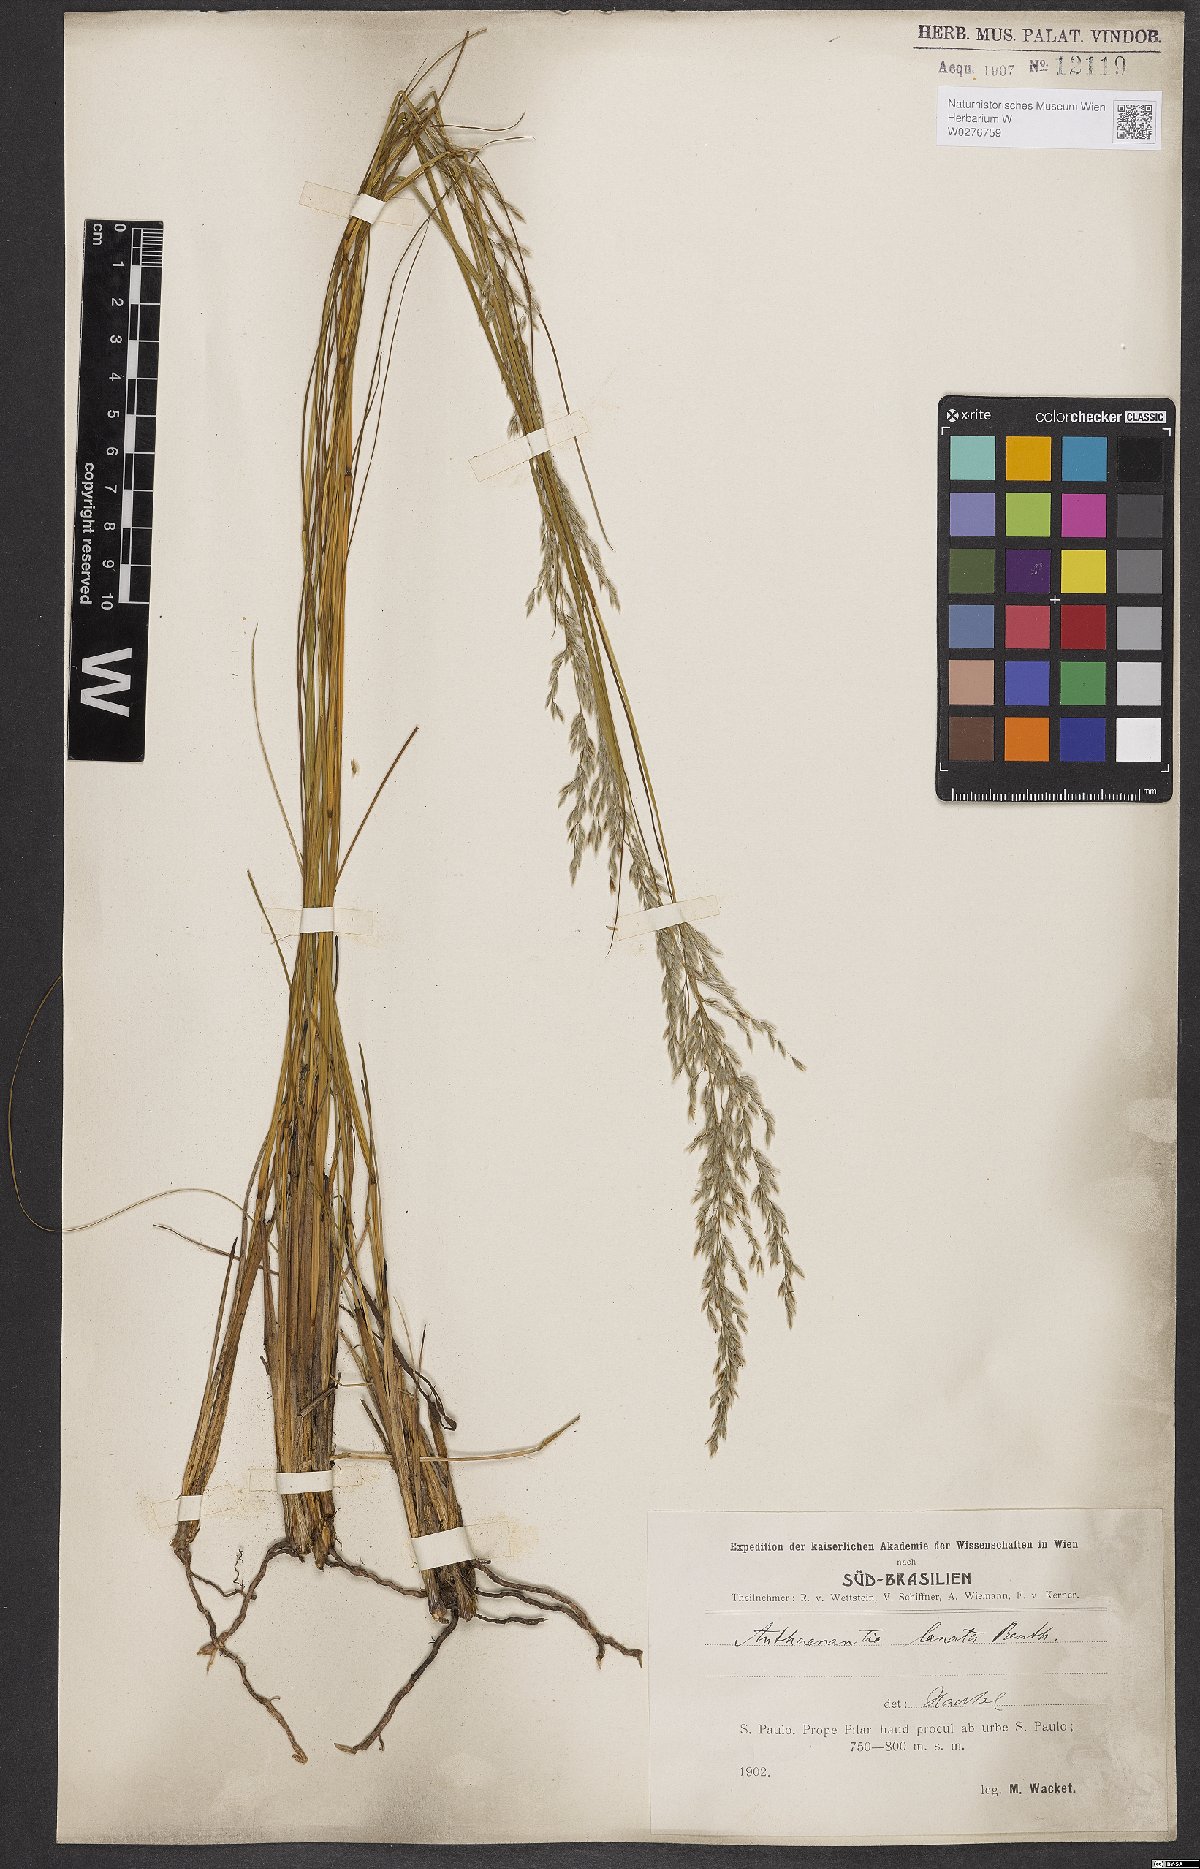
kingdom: Plantae
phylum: Tracheophyta
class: Liliopsida
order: Poales
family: Poaceae
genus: Anthaenantia
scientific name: Anthaenantia lanata
